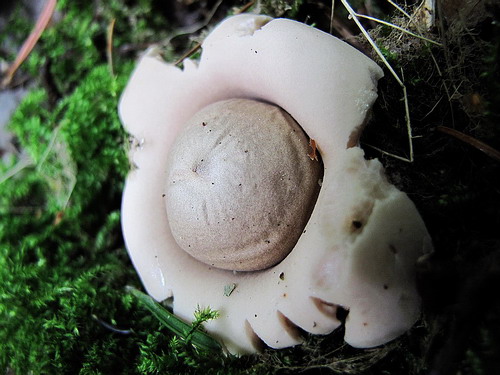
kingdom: Fungi
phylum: Basidiomycota
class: Agaricomycetes
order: Geastrales
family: Geastraceae
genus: Geastrum
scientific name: Geastrum fimbriatum
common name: frynset stjernebold
